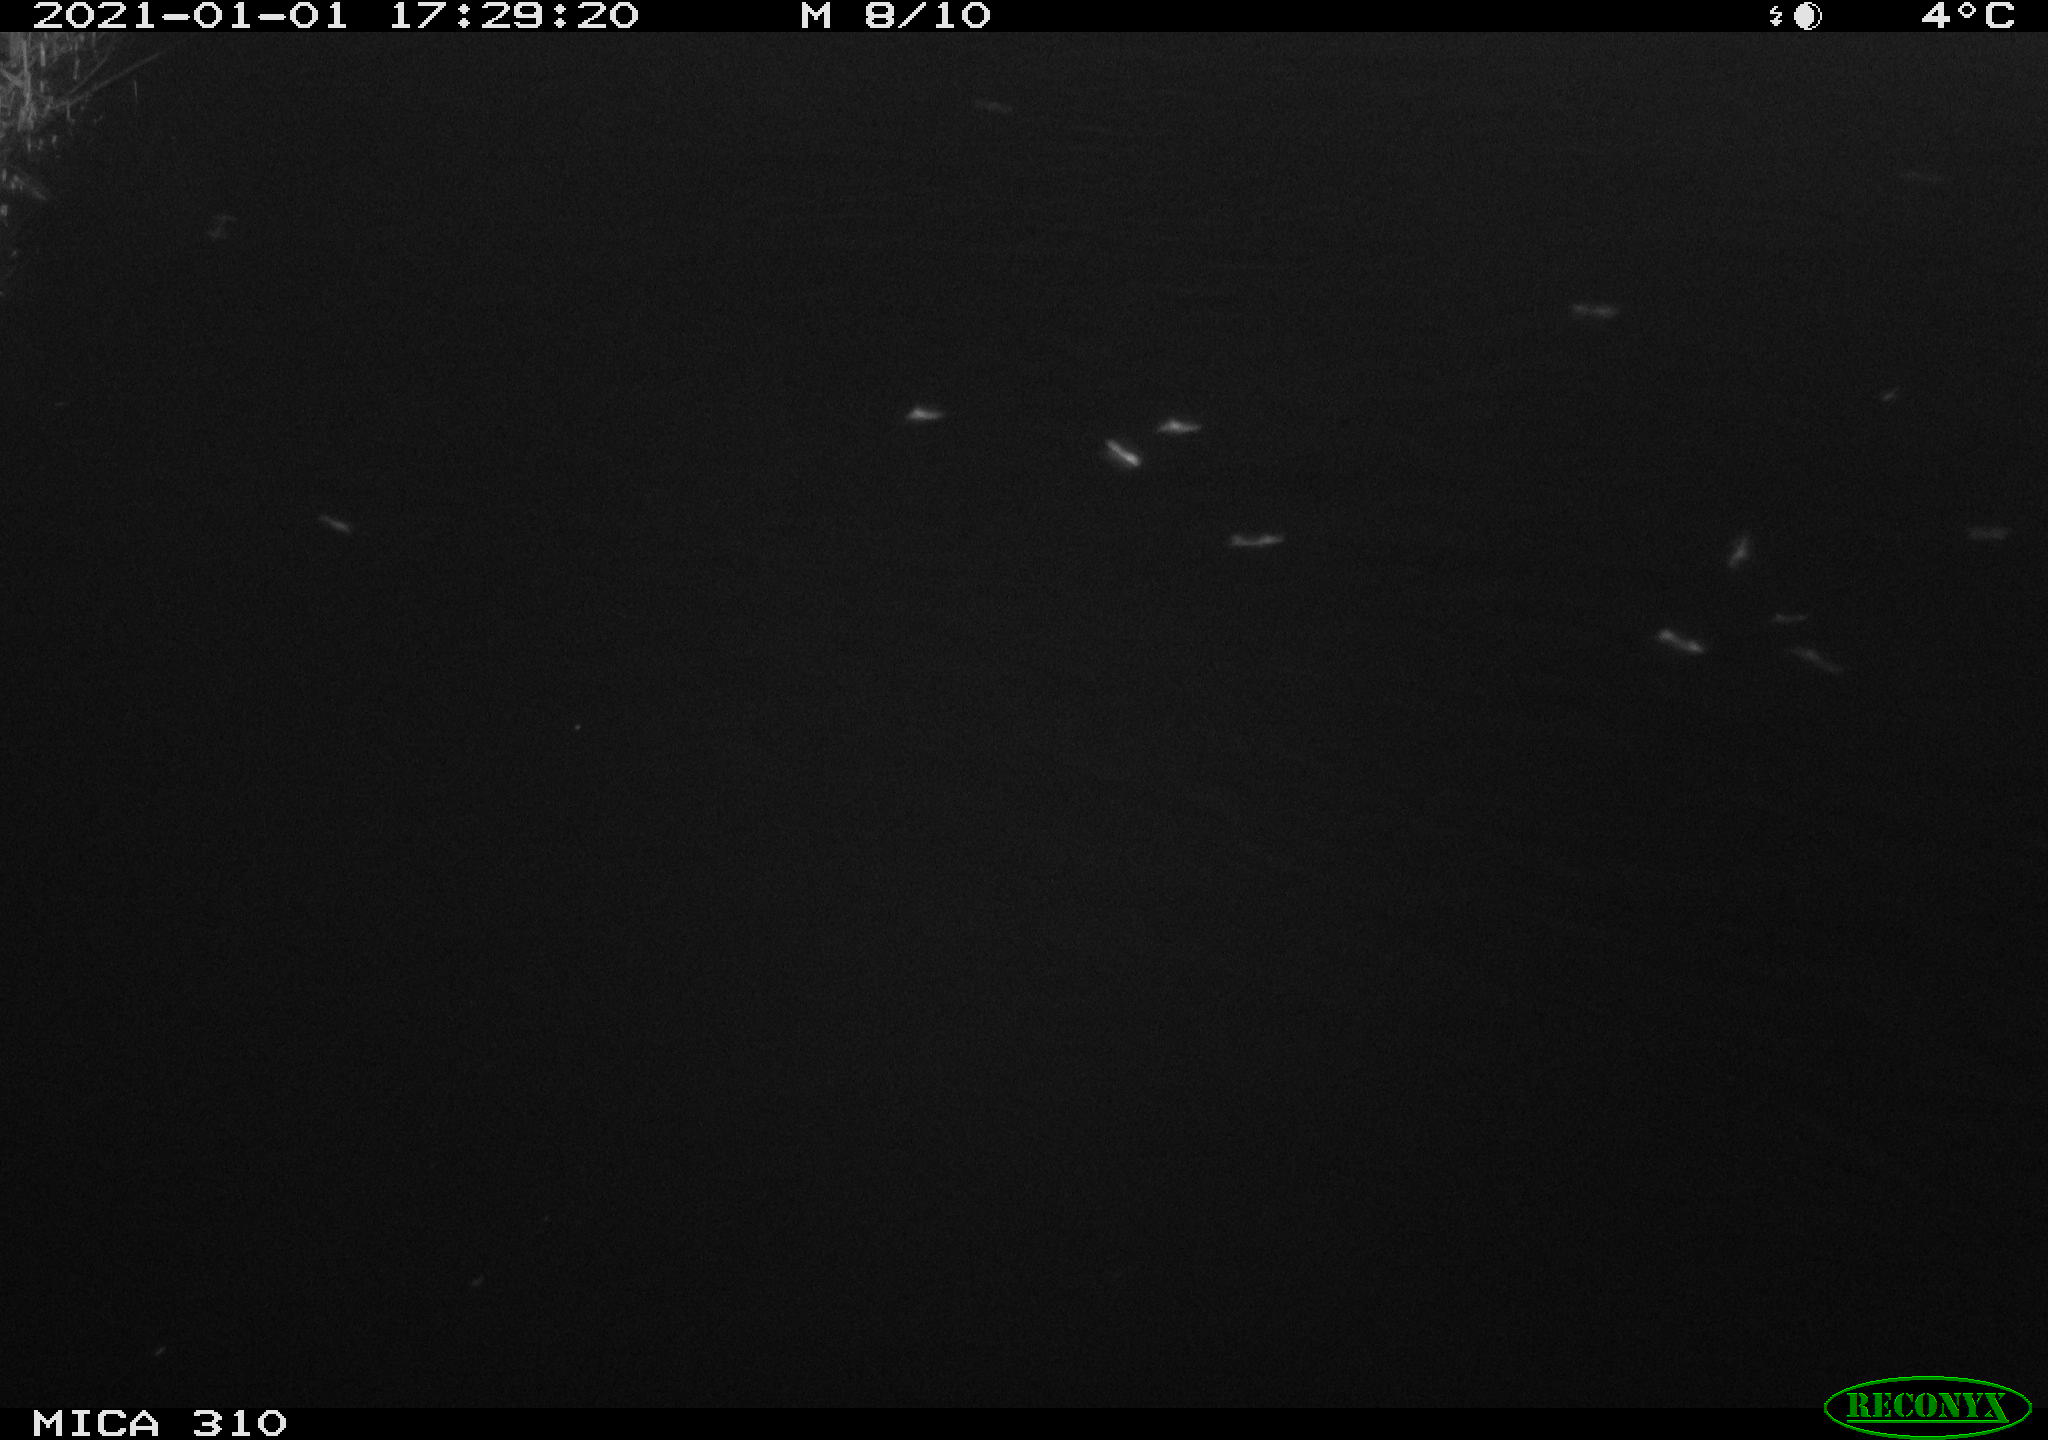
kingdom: Animalia
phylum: Chordata
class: Aves
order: Gruiformes
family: Rallidae
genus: Fulica
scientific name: Fulica atra
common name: Eurasian coot
